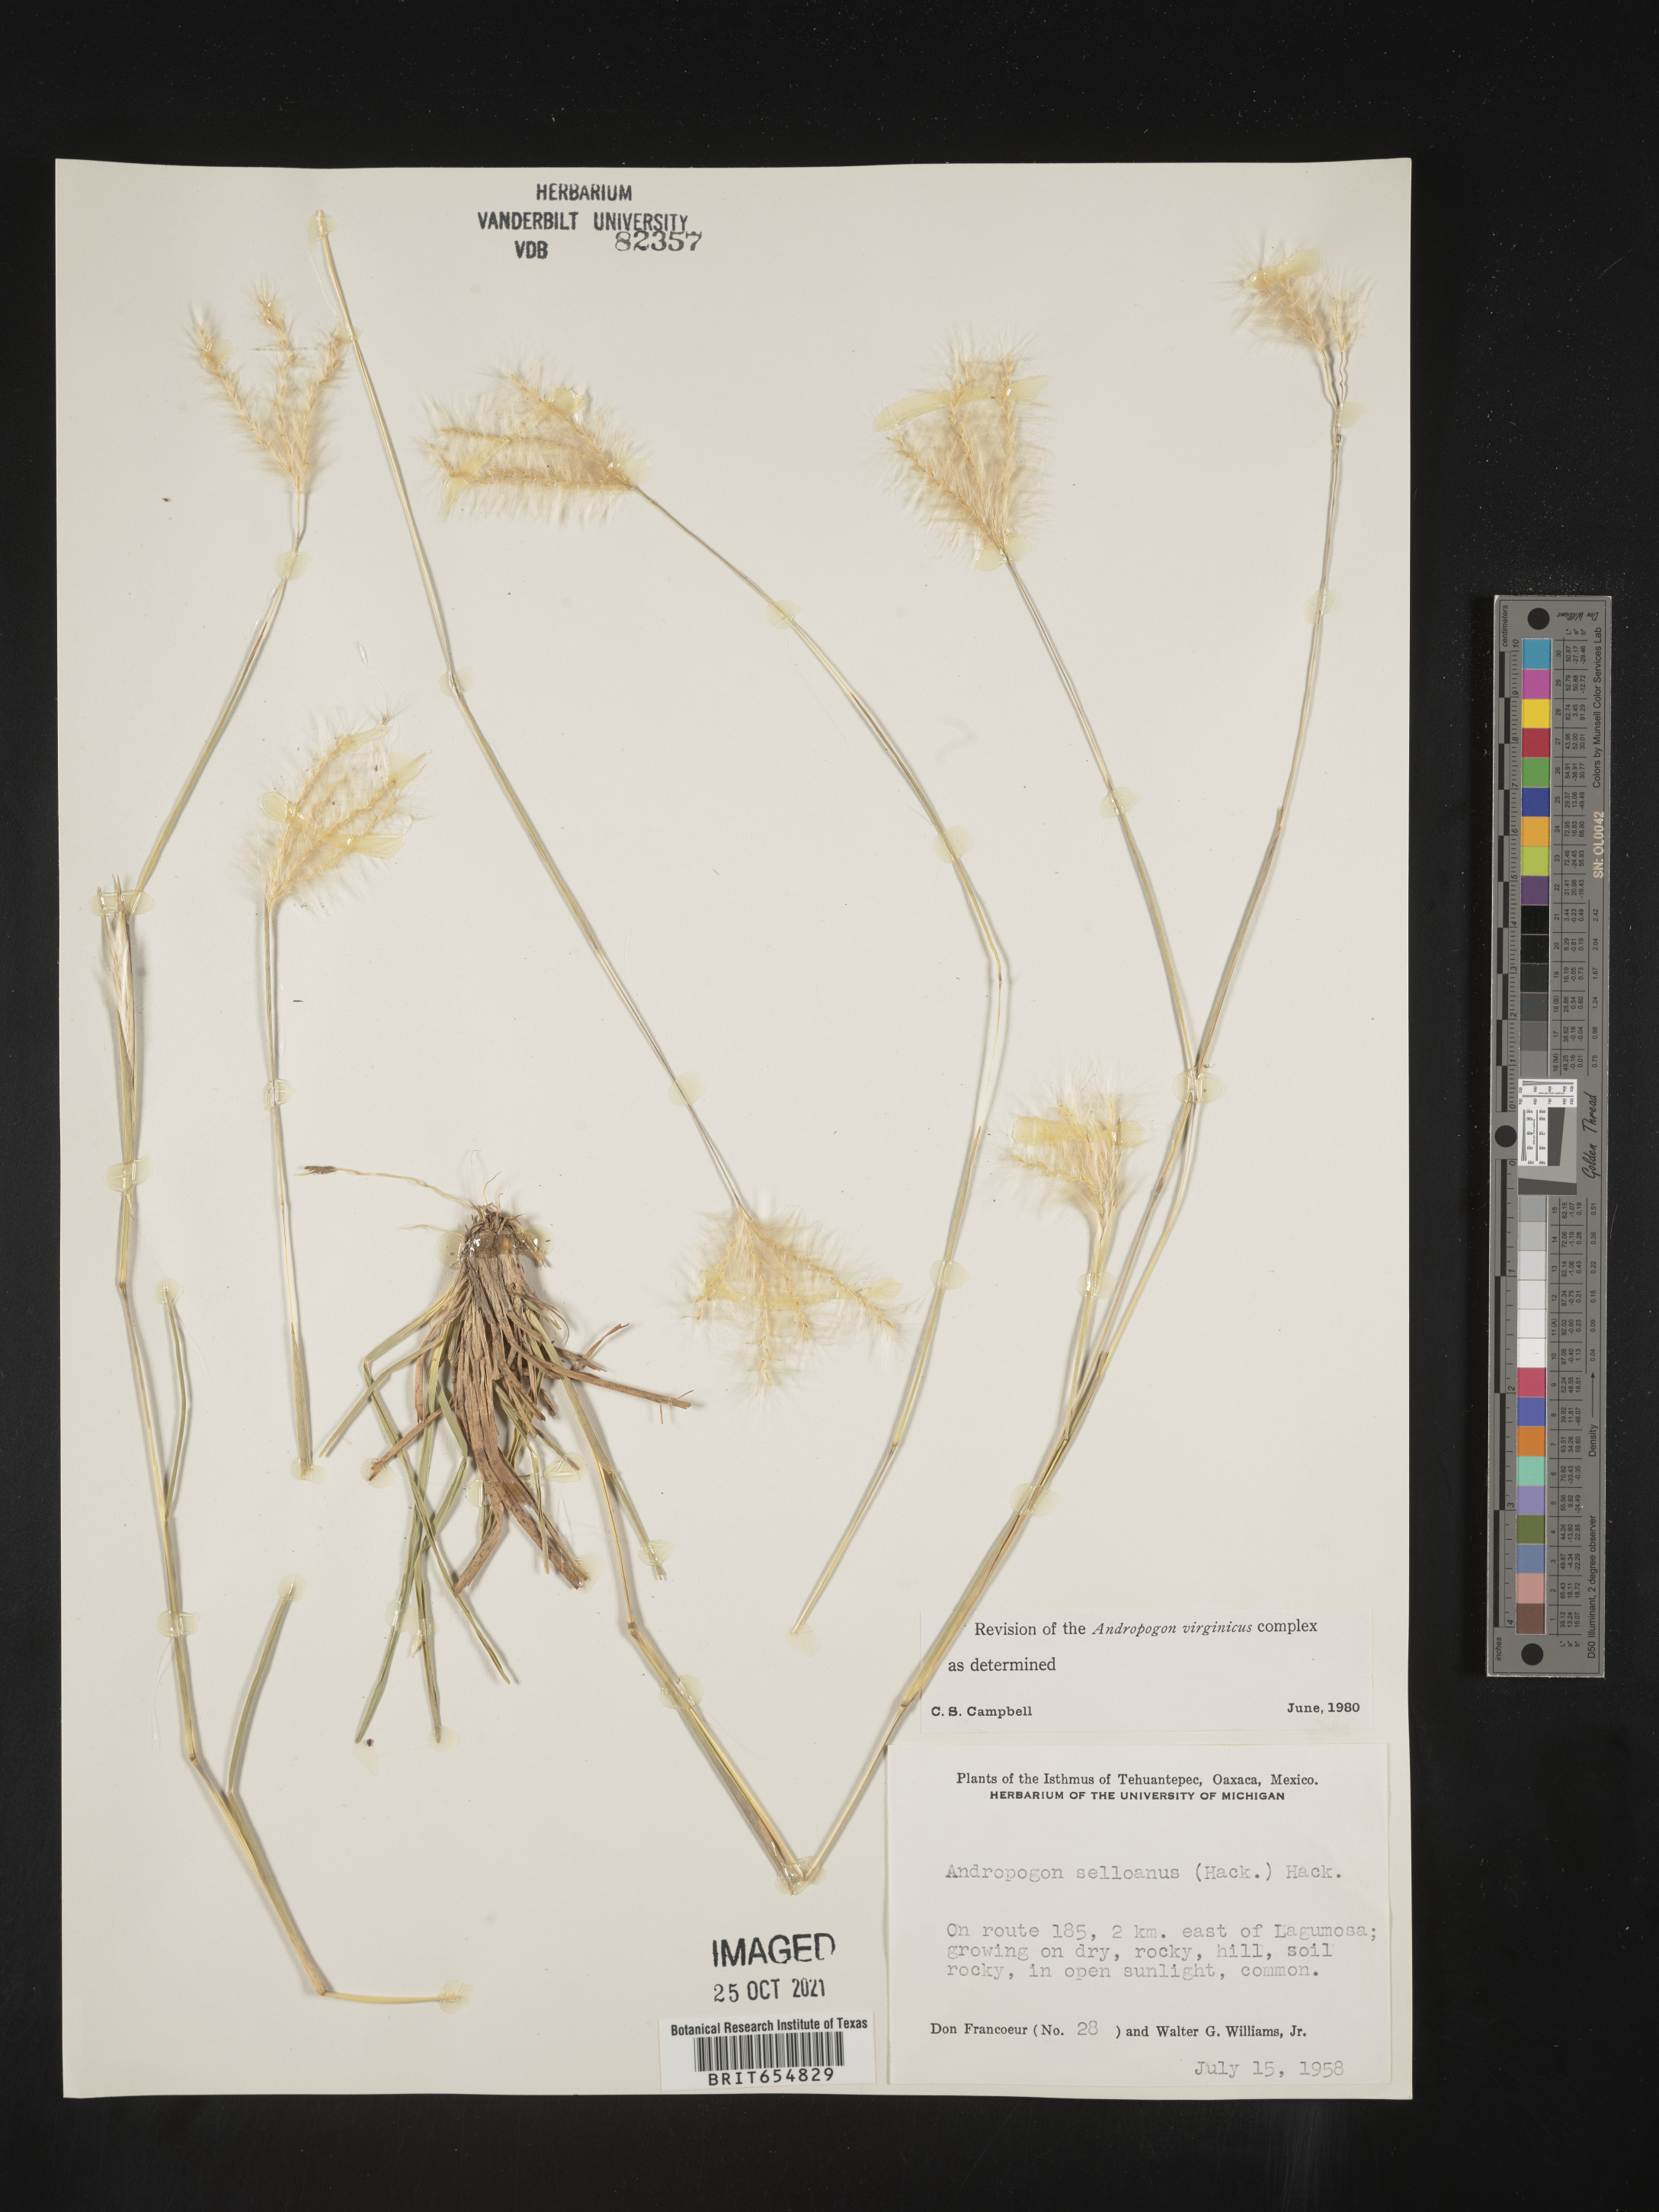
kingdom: Plantae
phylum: Tracheophyta
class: Liliopsida
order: Poales
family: Poaceae
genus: Andropogon
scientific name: Andropogon
